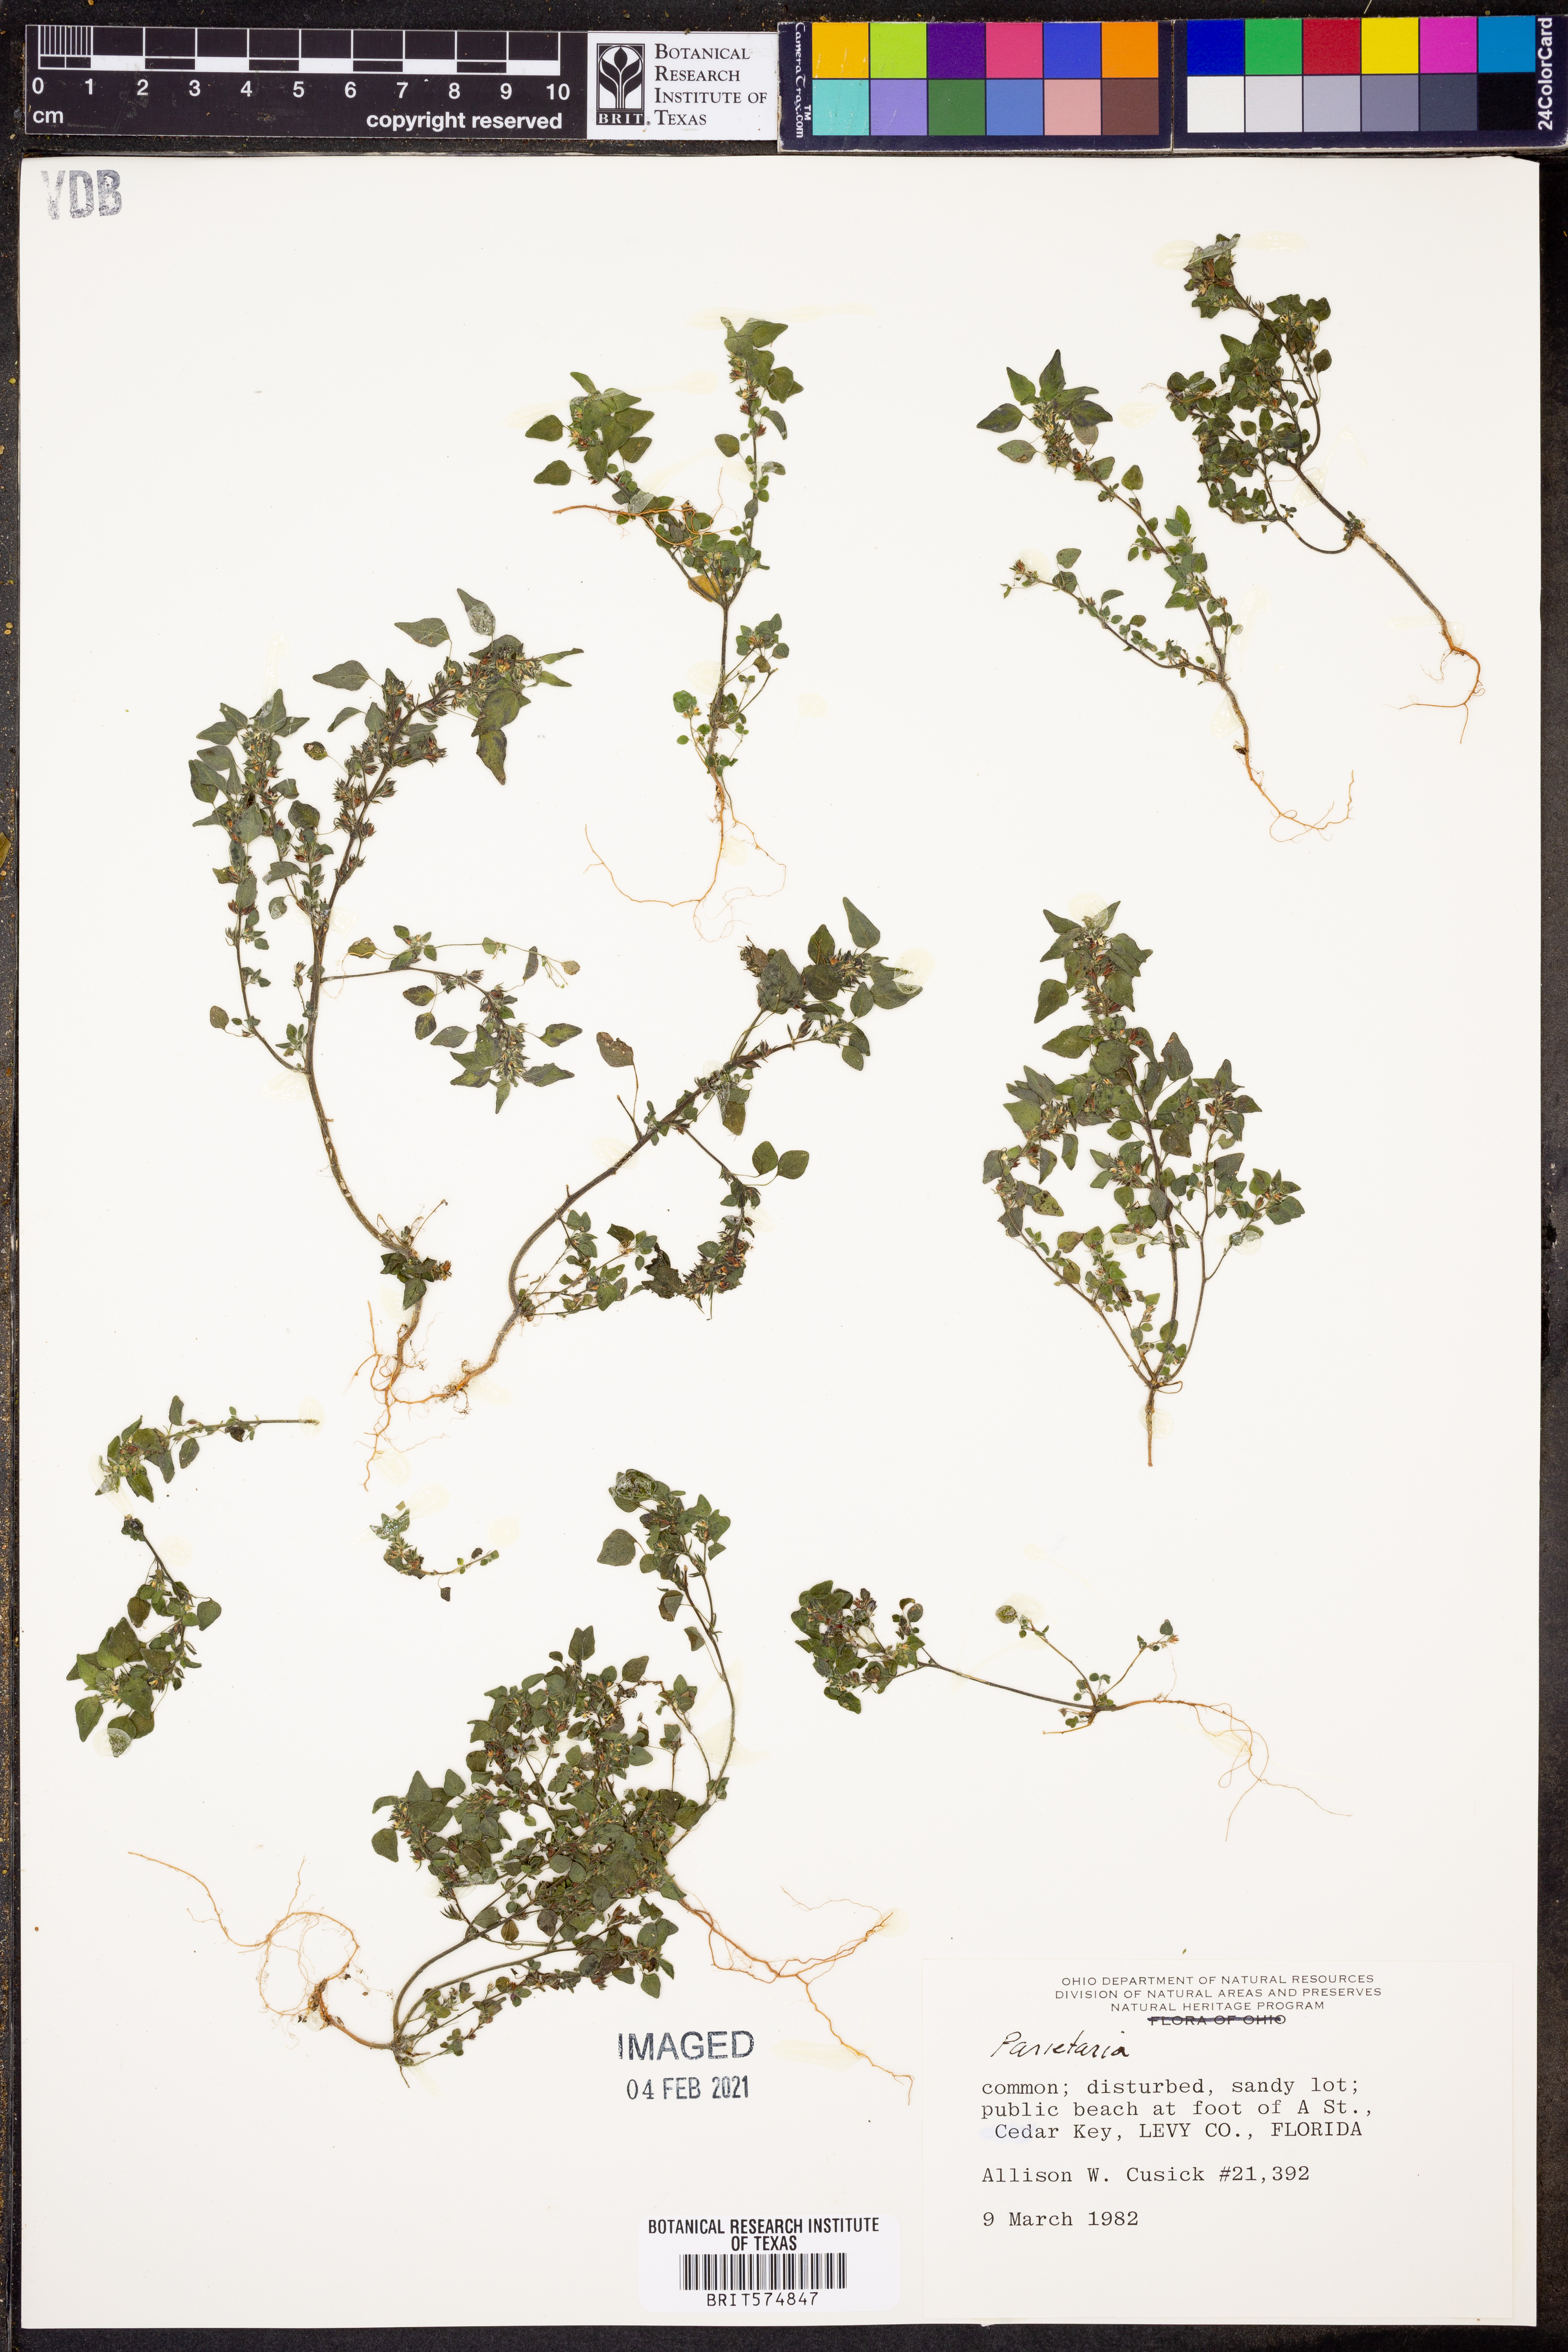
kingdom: Plantae
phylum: Tracheophyta
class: Magnoliopsida
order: Rosales
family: Urticaceae
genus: Parietaria
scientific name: Parietaria
